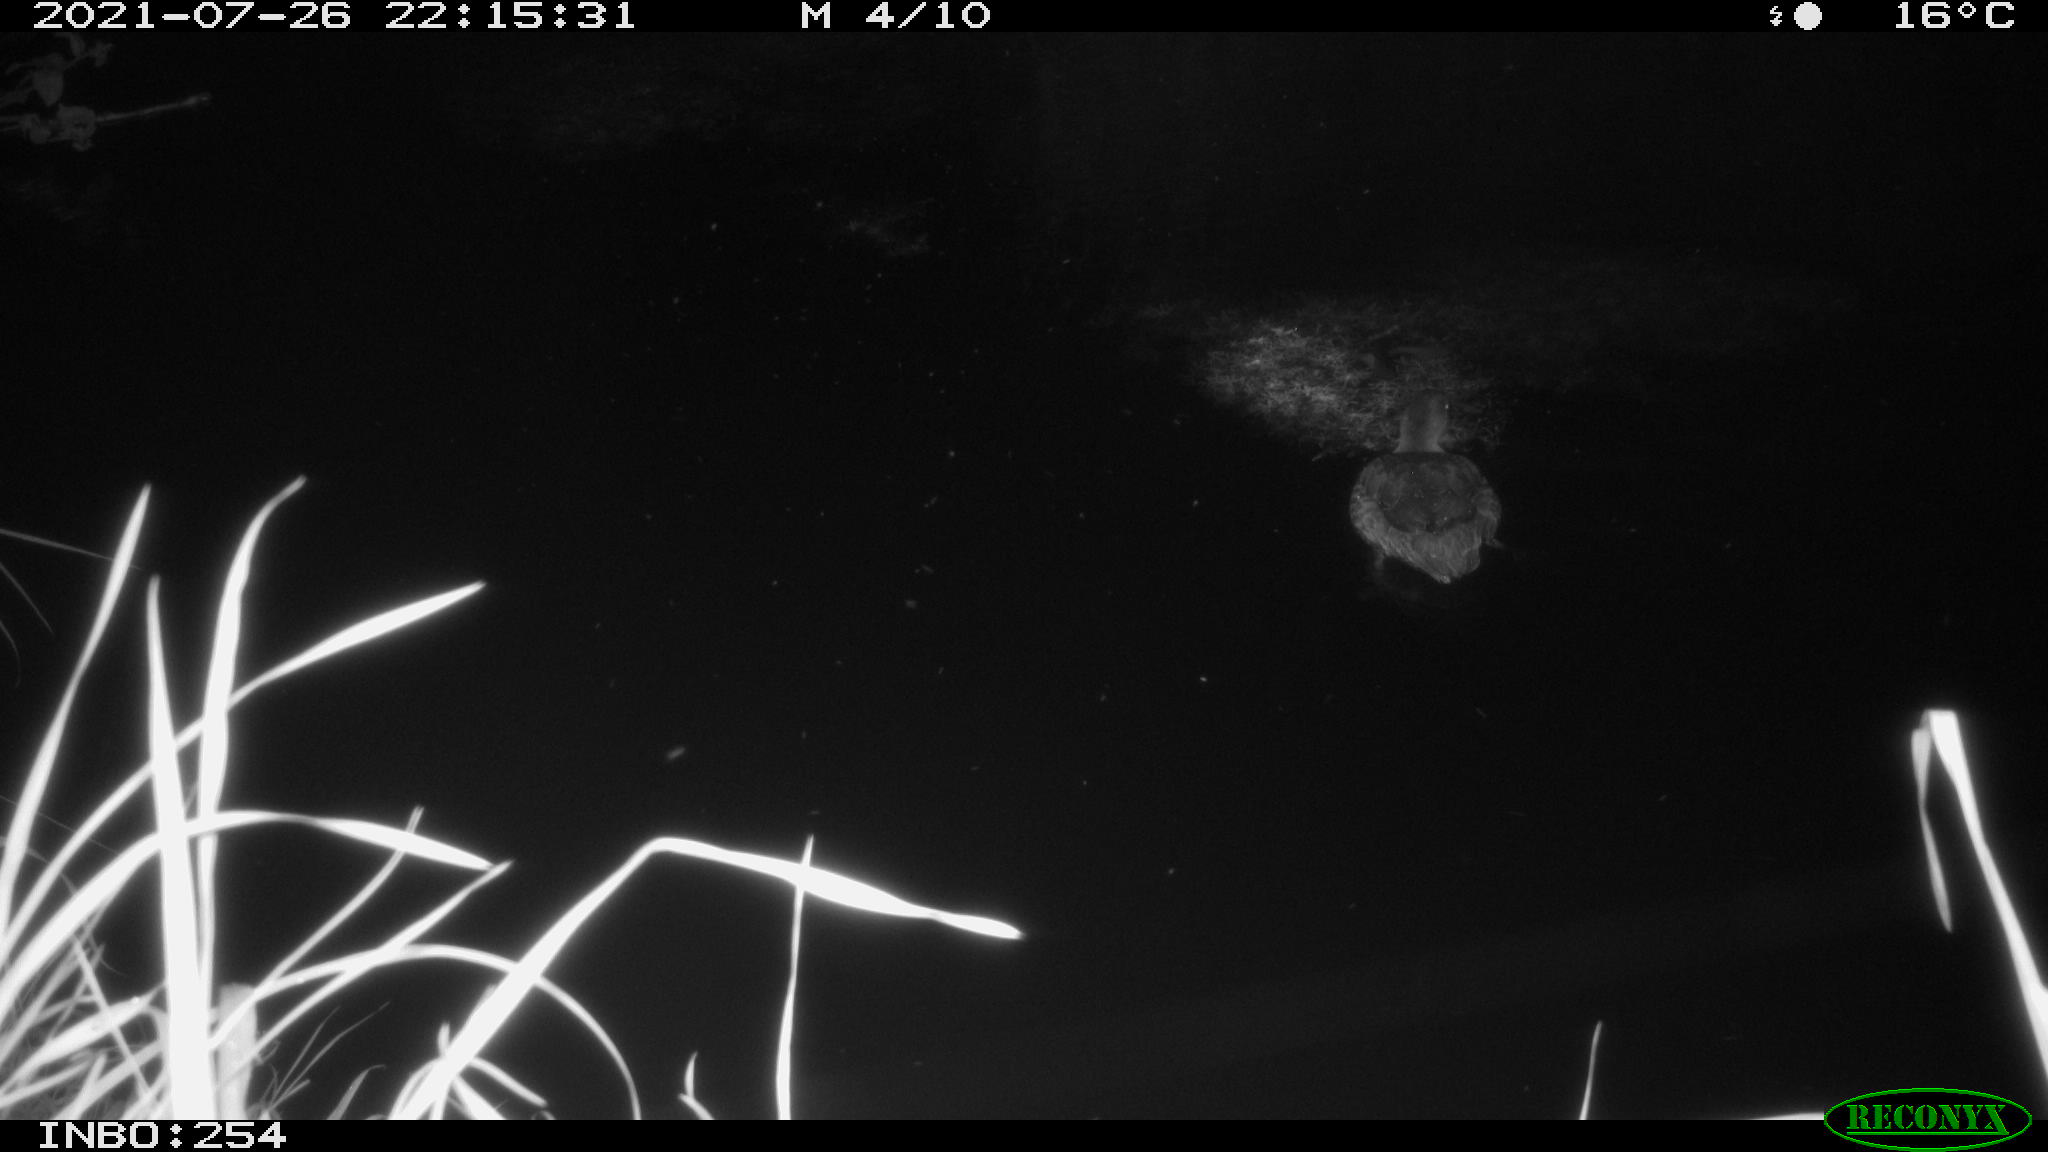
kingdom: Animalia
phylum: Chordata
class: Aves
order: Anseriformes
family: Anatidae
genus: Anas
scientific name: Anas platyrhynchos
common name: Mallard
